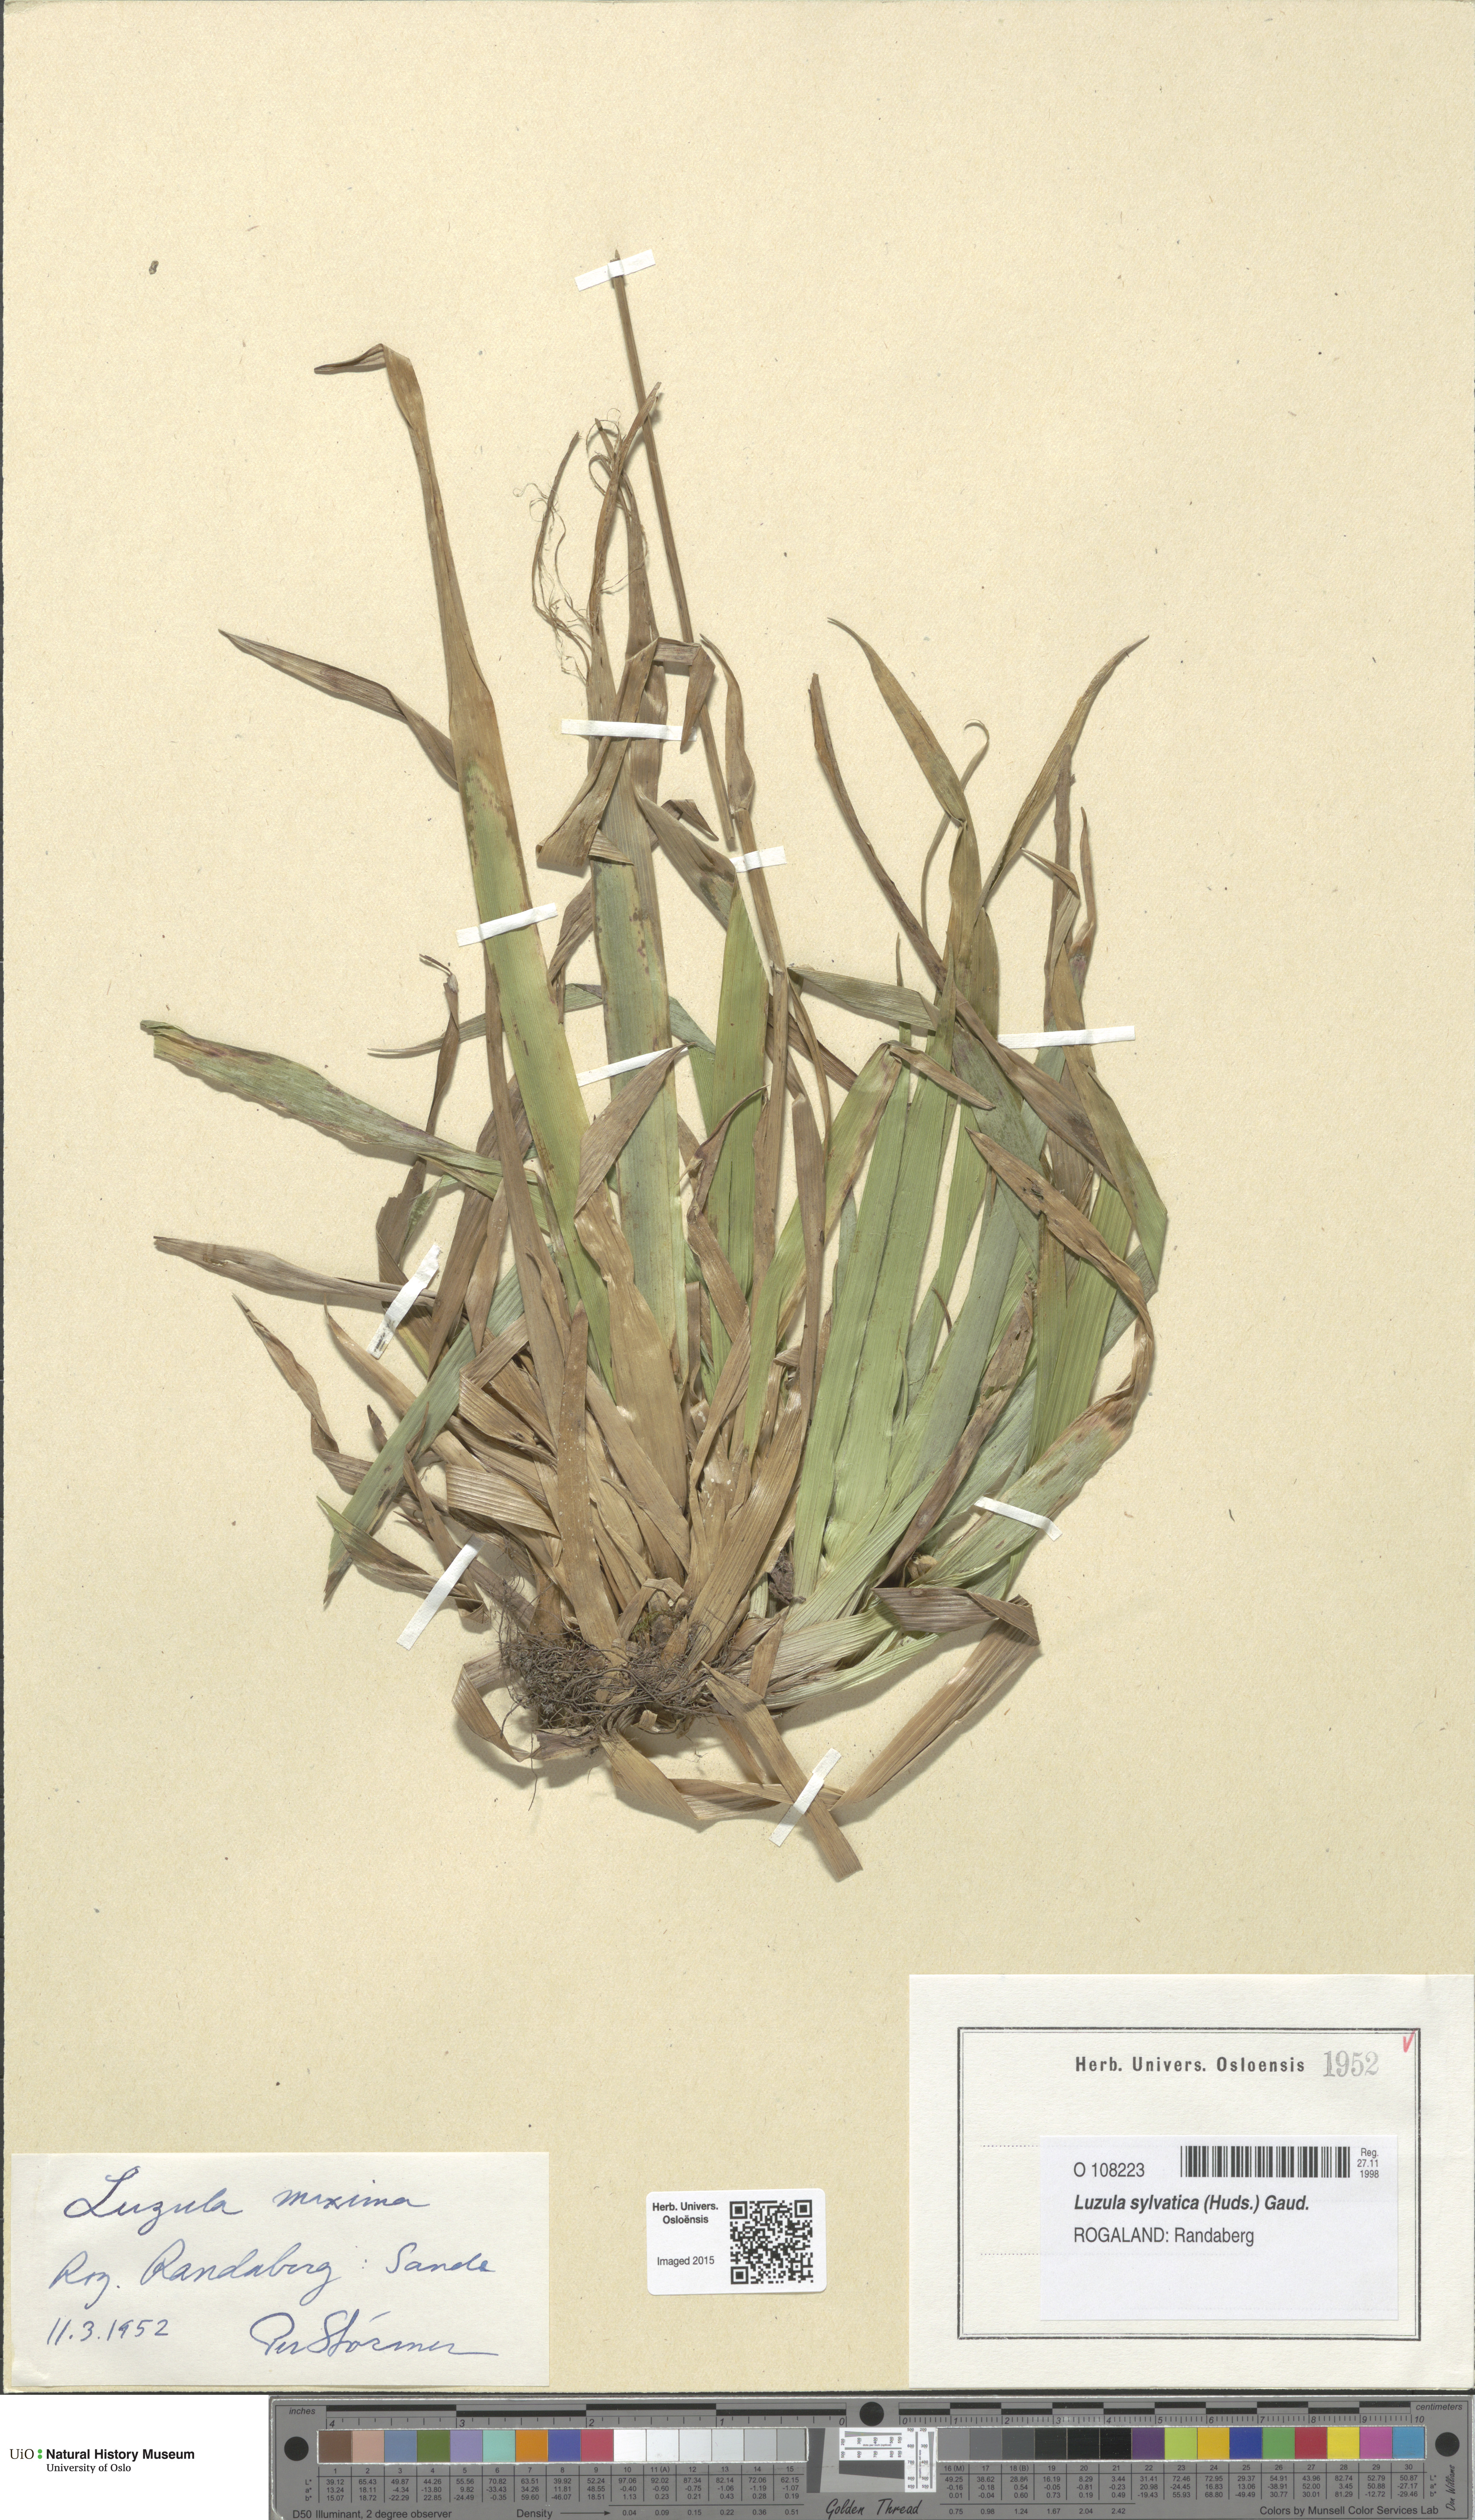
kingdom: Plantae
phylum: Tracheophyta
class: Liliopsida
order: Poales
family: Juncaceae
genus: Luzula
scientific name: Luzula sylvatica
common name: Great wood-rush
